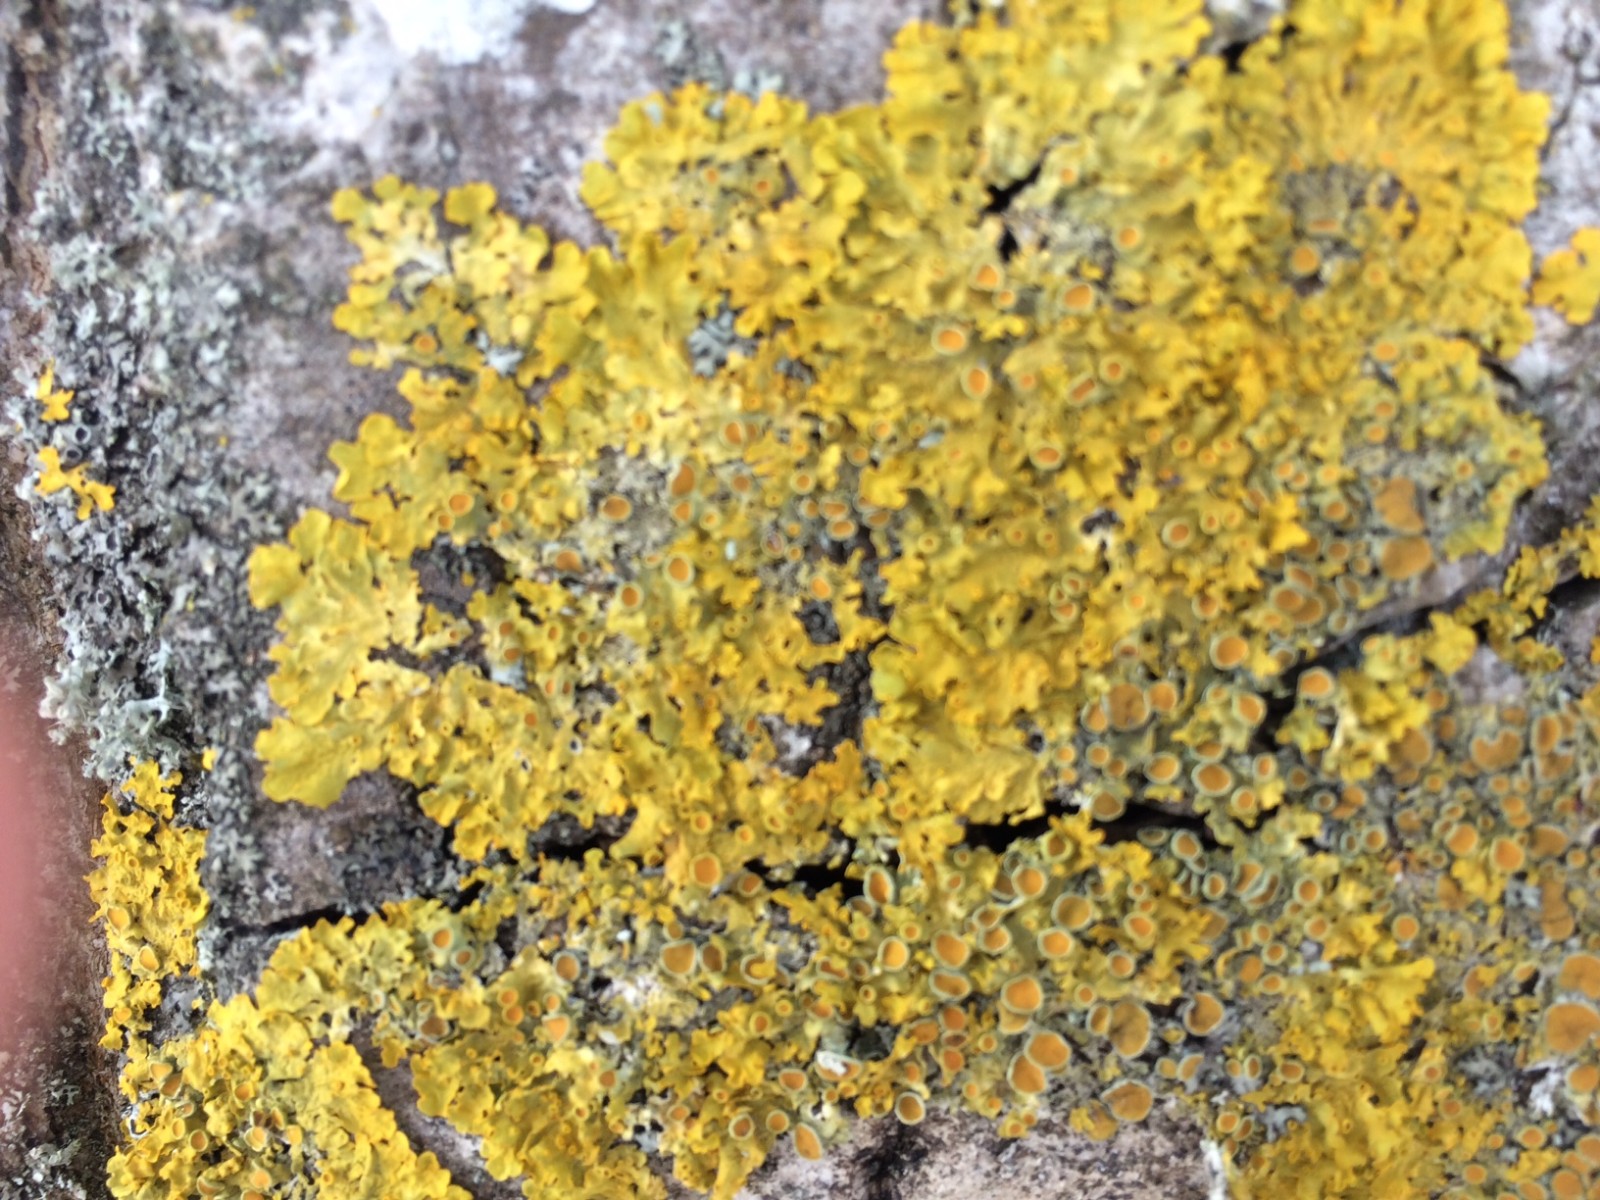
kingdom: Fungi
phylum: Ascomycota
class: Lecanoromycetes
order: Teloschistales
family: Teloschistaceae
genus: Xanthoria
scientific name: Xanthoria parietina
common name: almindelig væggelav
